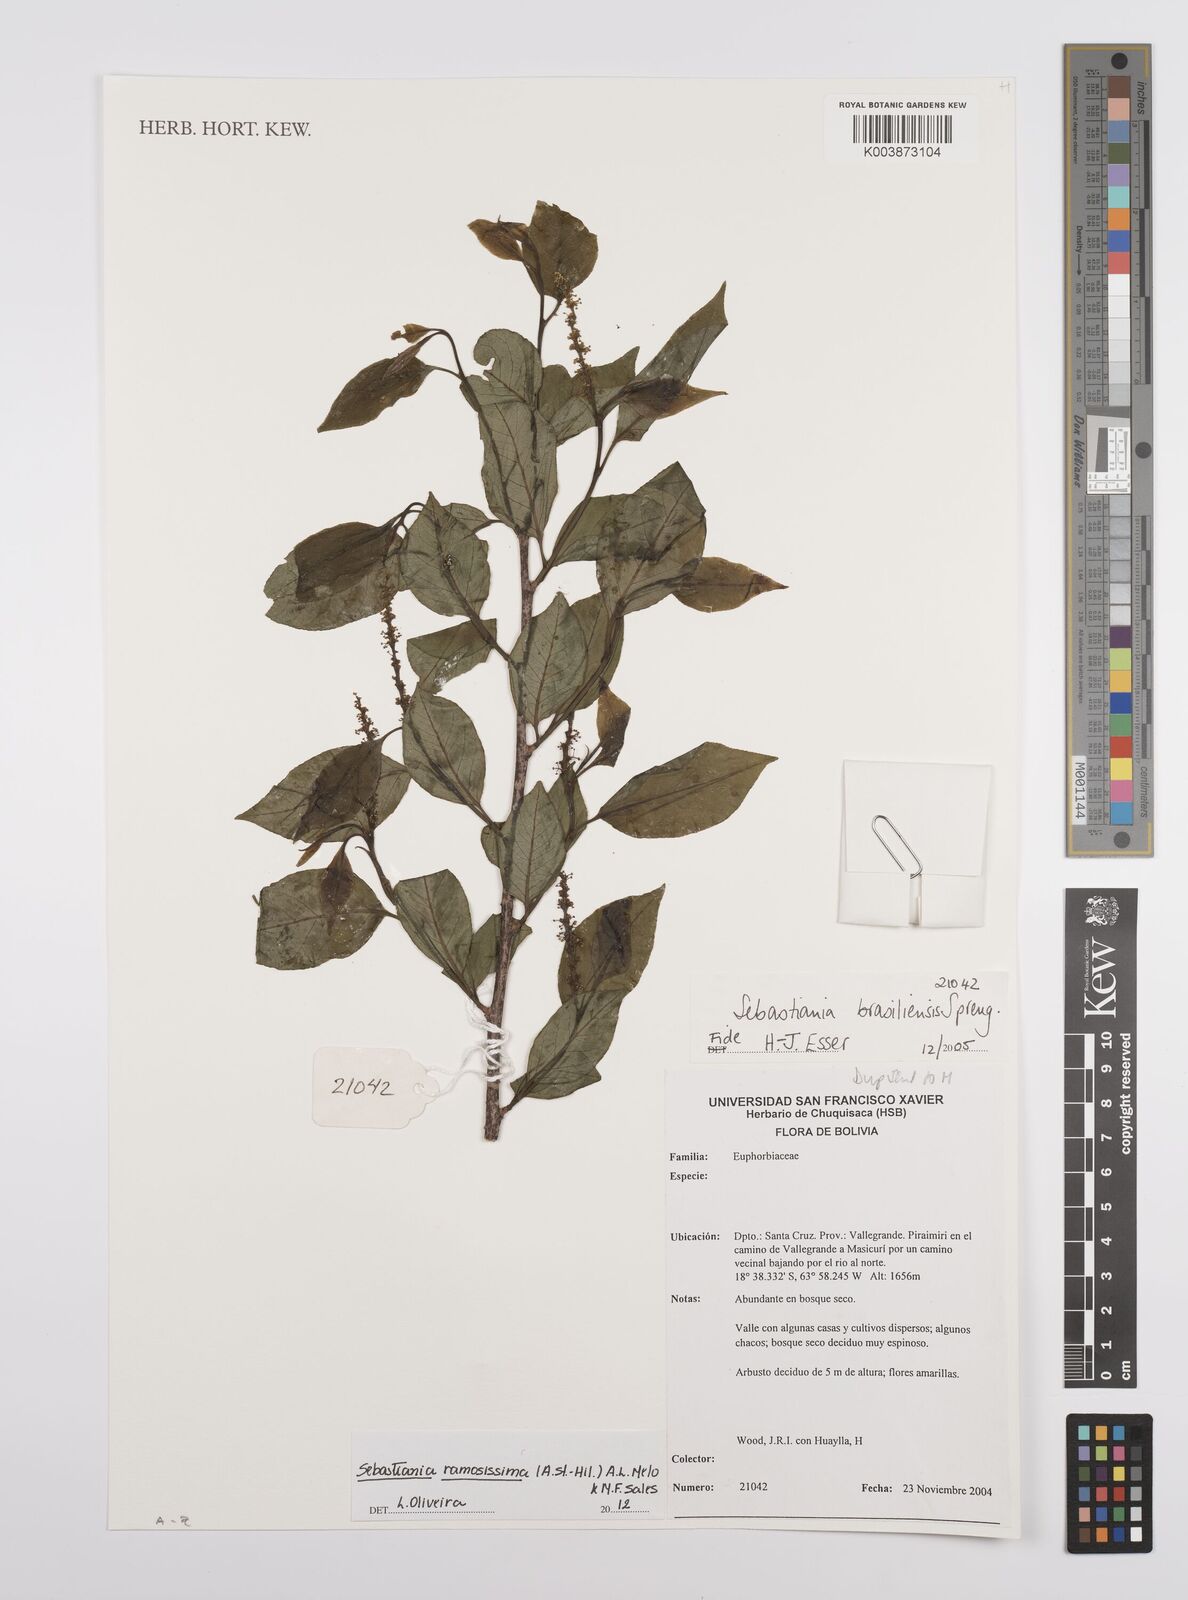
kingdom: Plantae
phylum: Tracheophyta
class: Magnoliopsida
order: Malpighiales
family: Euphorbiaceae
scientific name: Euphorbiaceae
